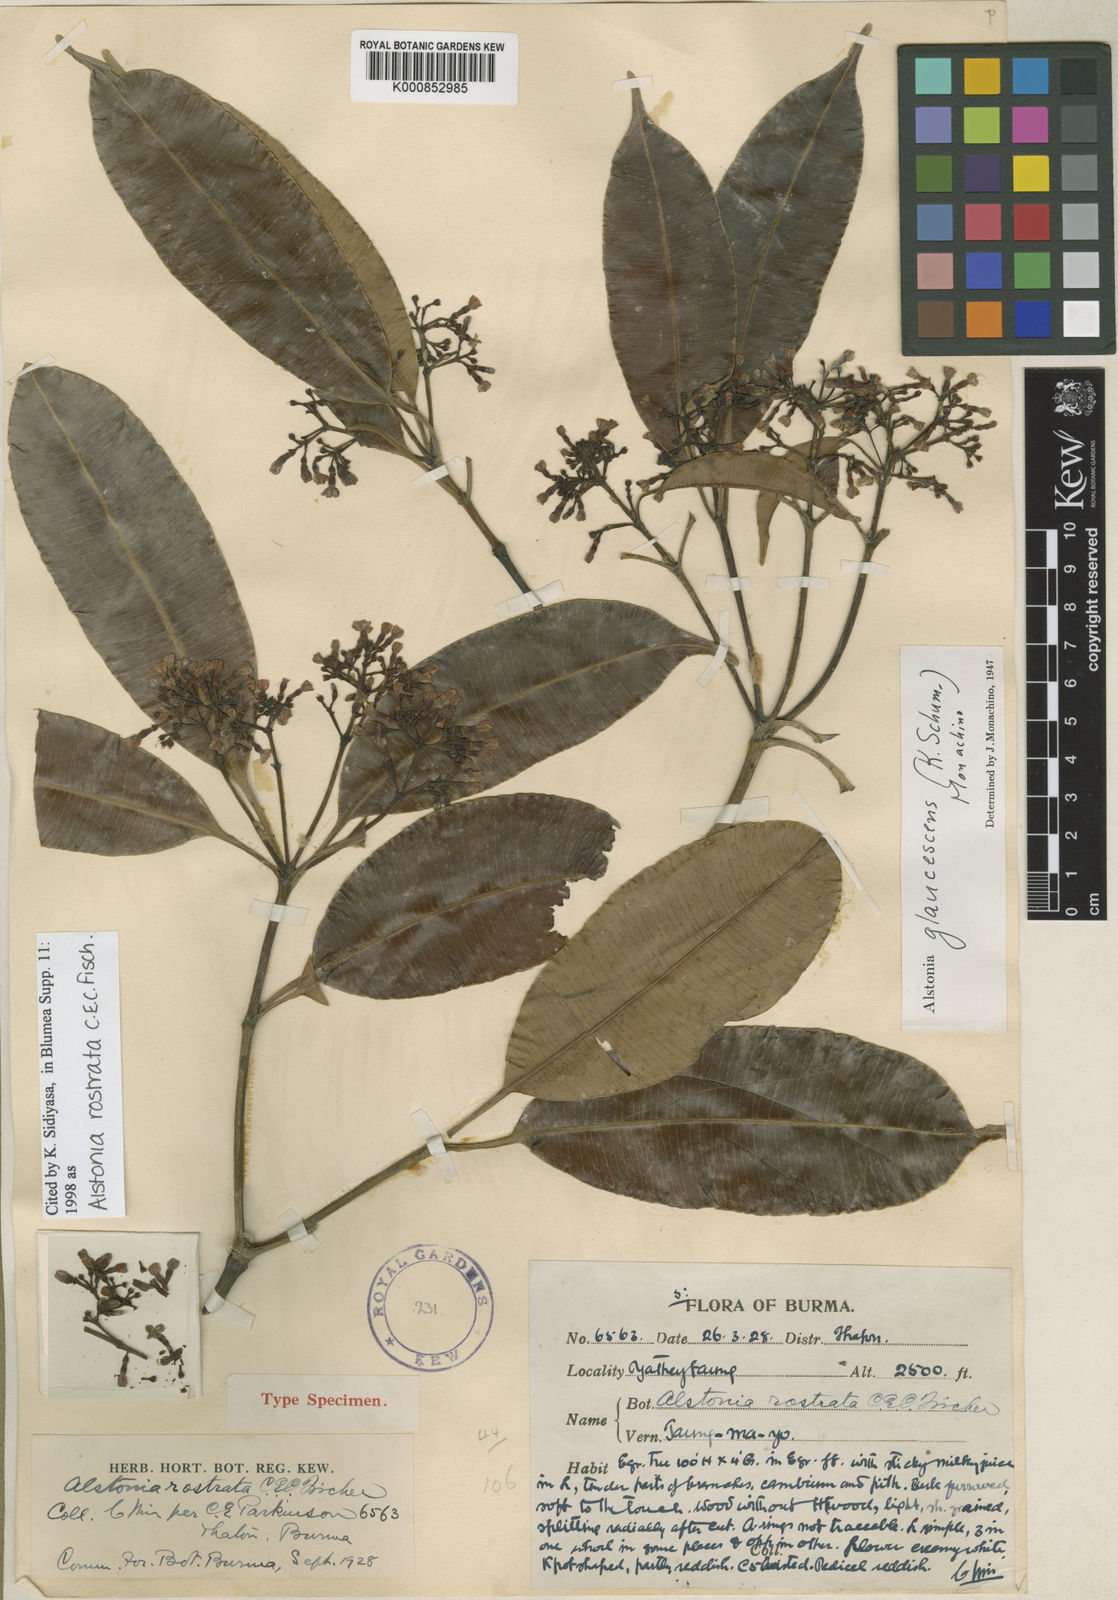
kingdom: Plantae
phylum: Tracheophyta
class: Magnoliopsida
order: Gentianales
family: Apocynaceae
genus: Alstonia
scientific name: Alstonia rostrata
